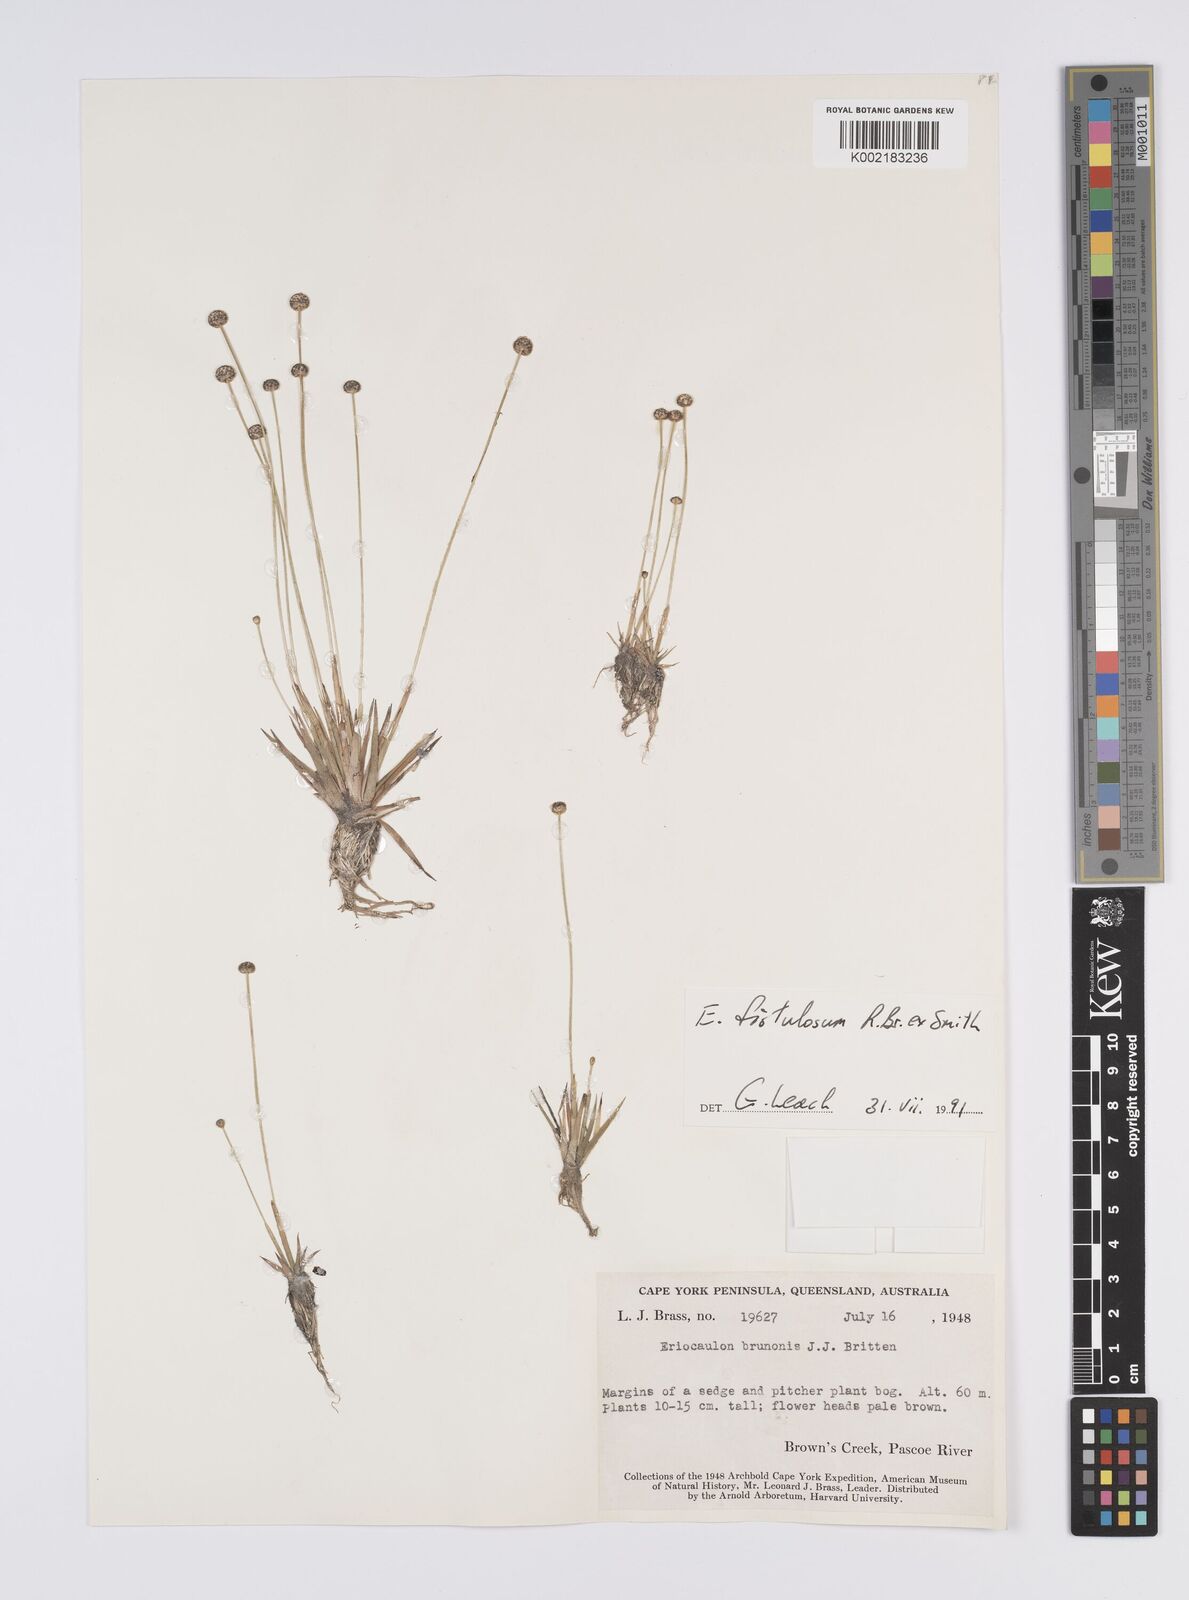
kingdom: Plantae
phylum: Tracheophyta
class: Liliopsida
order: Poales
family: Eriocaulaceae
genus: Eriocaulon
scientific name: Eriocaulon fistulosum
